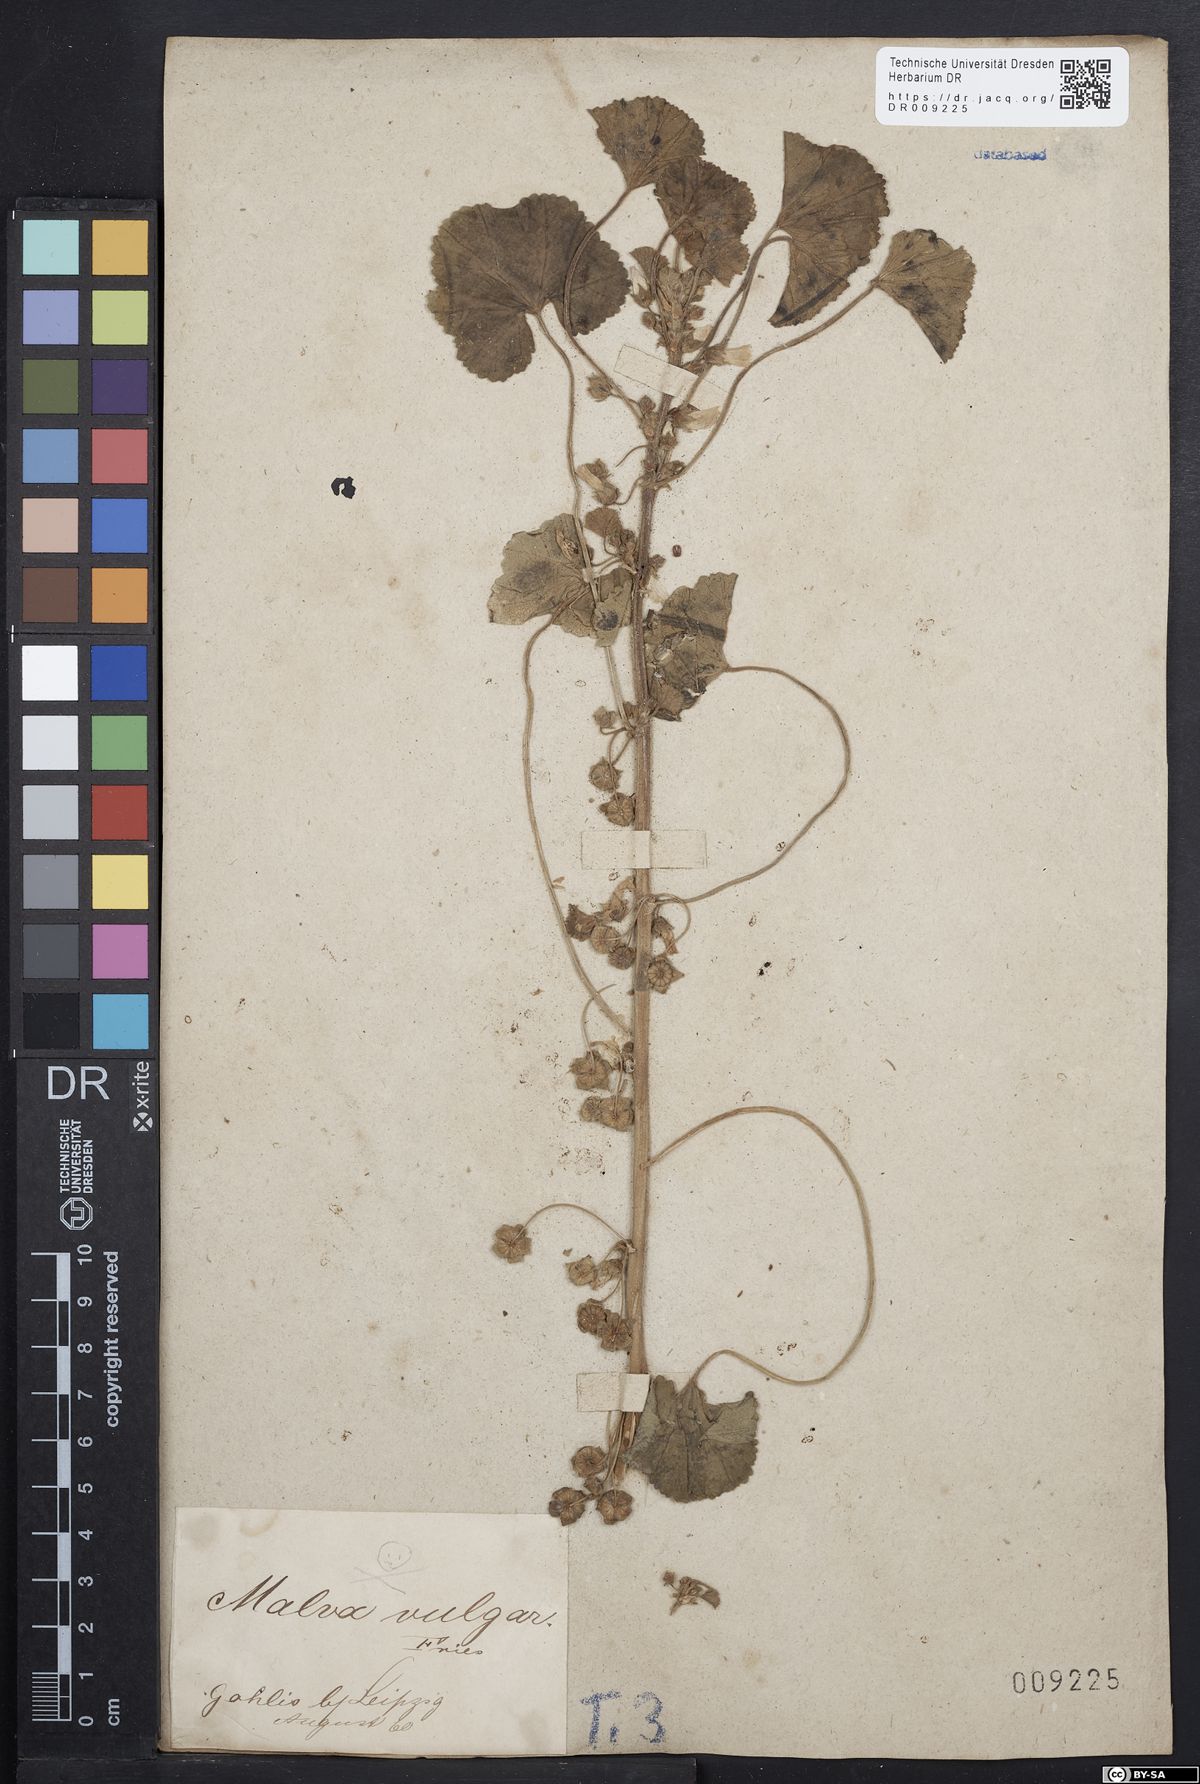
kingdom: Plantae
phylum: Tracheophyta
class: Magnoliopsida
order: Malvales
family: Malvaceae
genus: Malva
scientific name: Malva neglecta
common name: Common mallow
